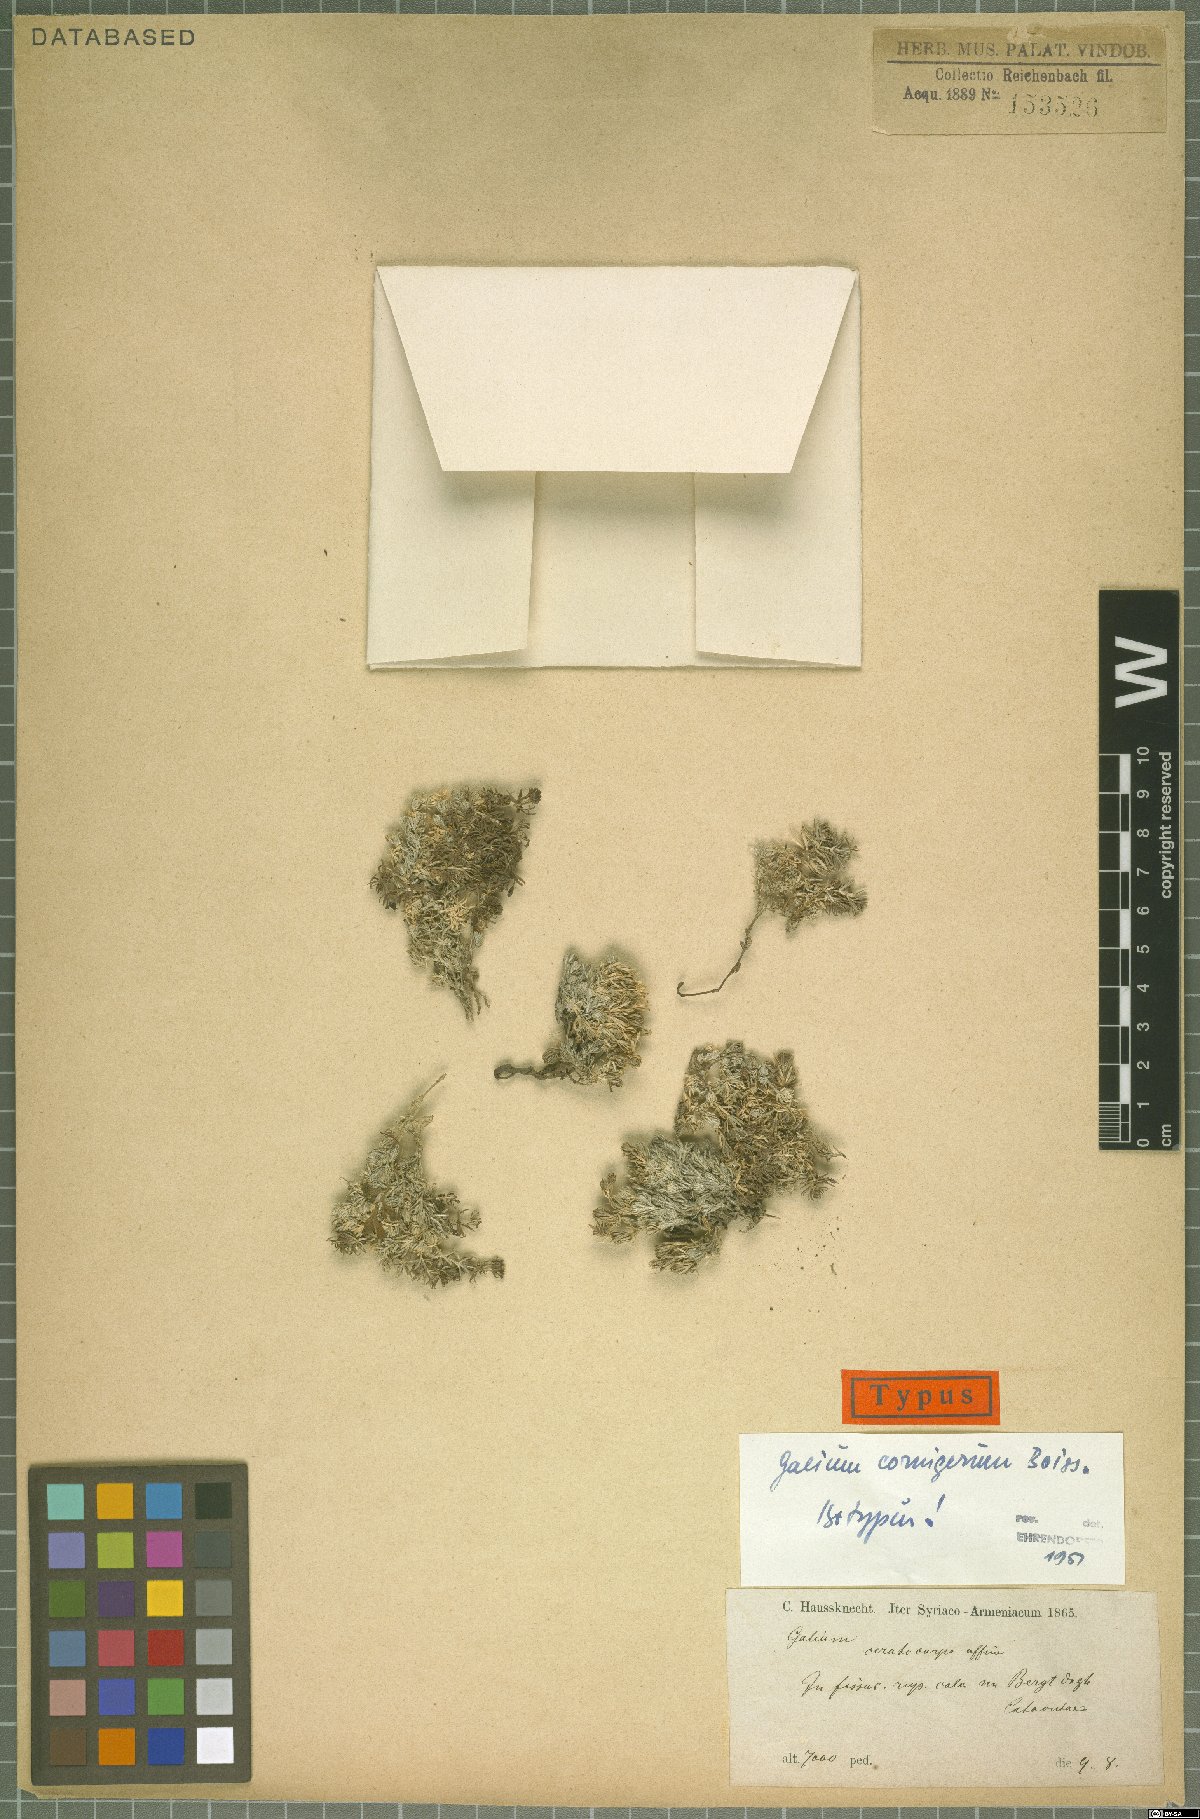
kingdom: Plantae
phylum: Tracheophyta
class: Magnoliopsida
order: Gentianales
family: Rubiaceae
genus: Galium
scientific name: Galium cornigerum
